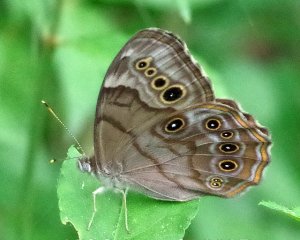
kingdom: Animalia
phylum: Arthropoda
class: Insecta
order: Lepidoptera
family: Nymphalidae
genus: Lethe
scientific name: Lethe anthedon
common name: Northern Pearly-Eye
